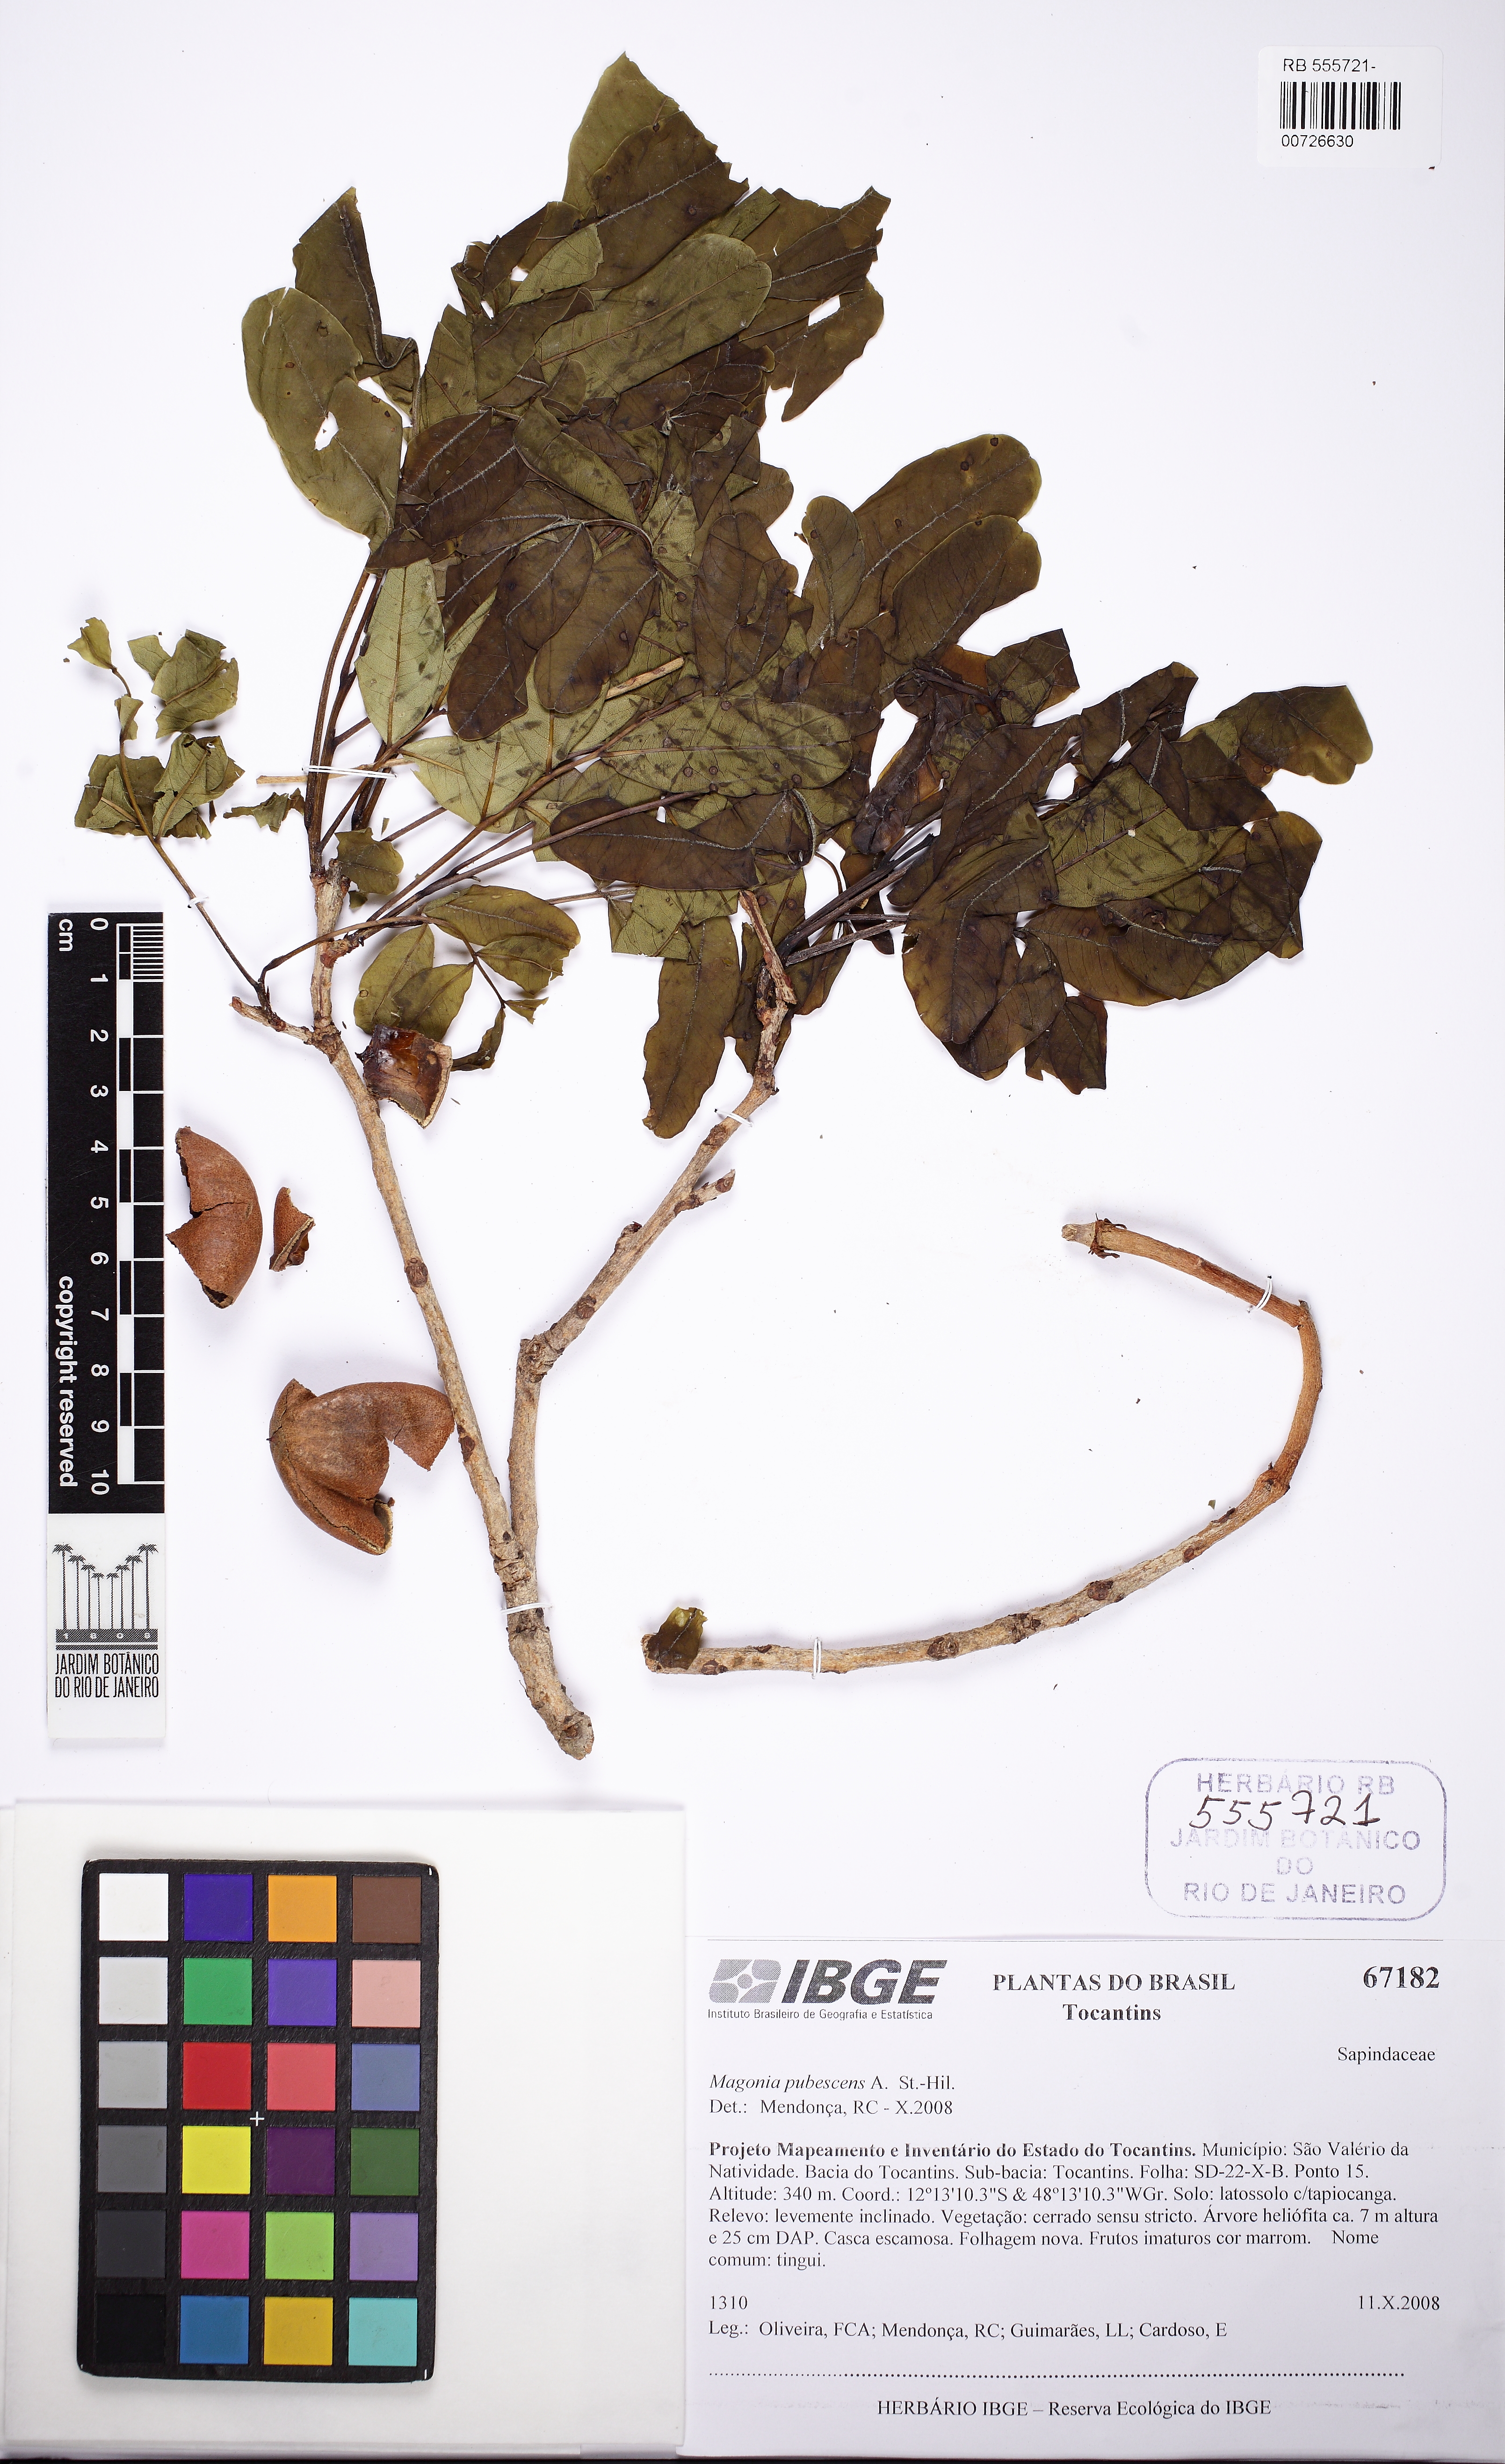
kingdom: Plantae
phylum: Tracheophyta
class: Magnoliopsida
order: Sapindales
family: Sapindaceae
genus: Magonia
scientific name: Magonia pubescens
